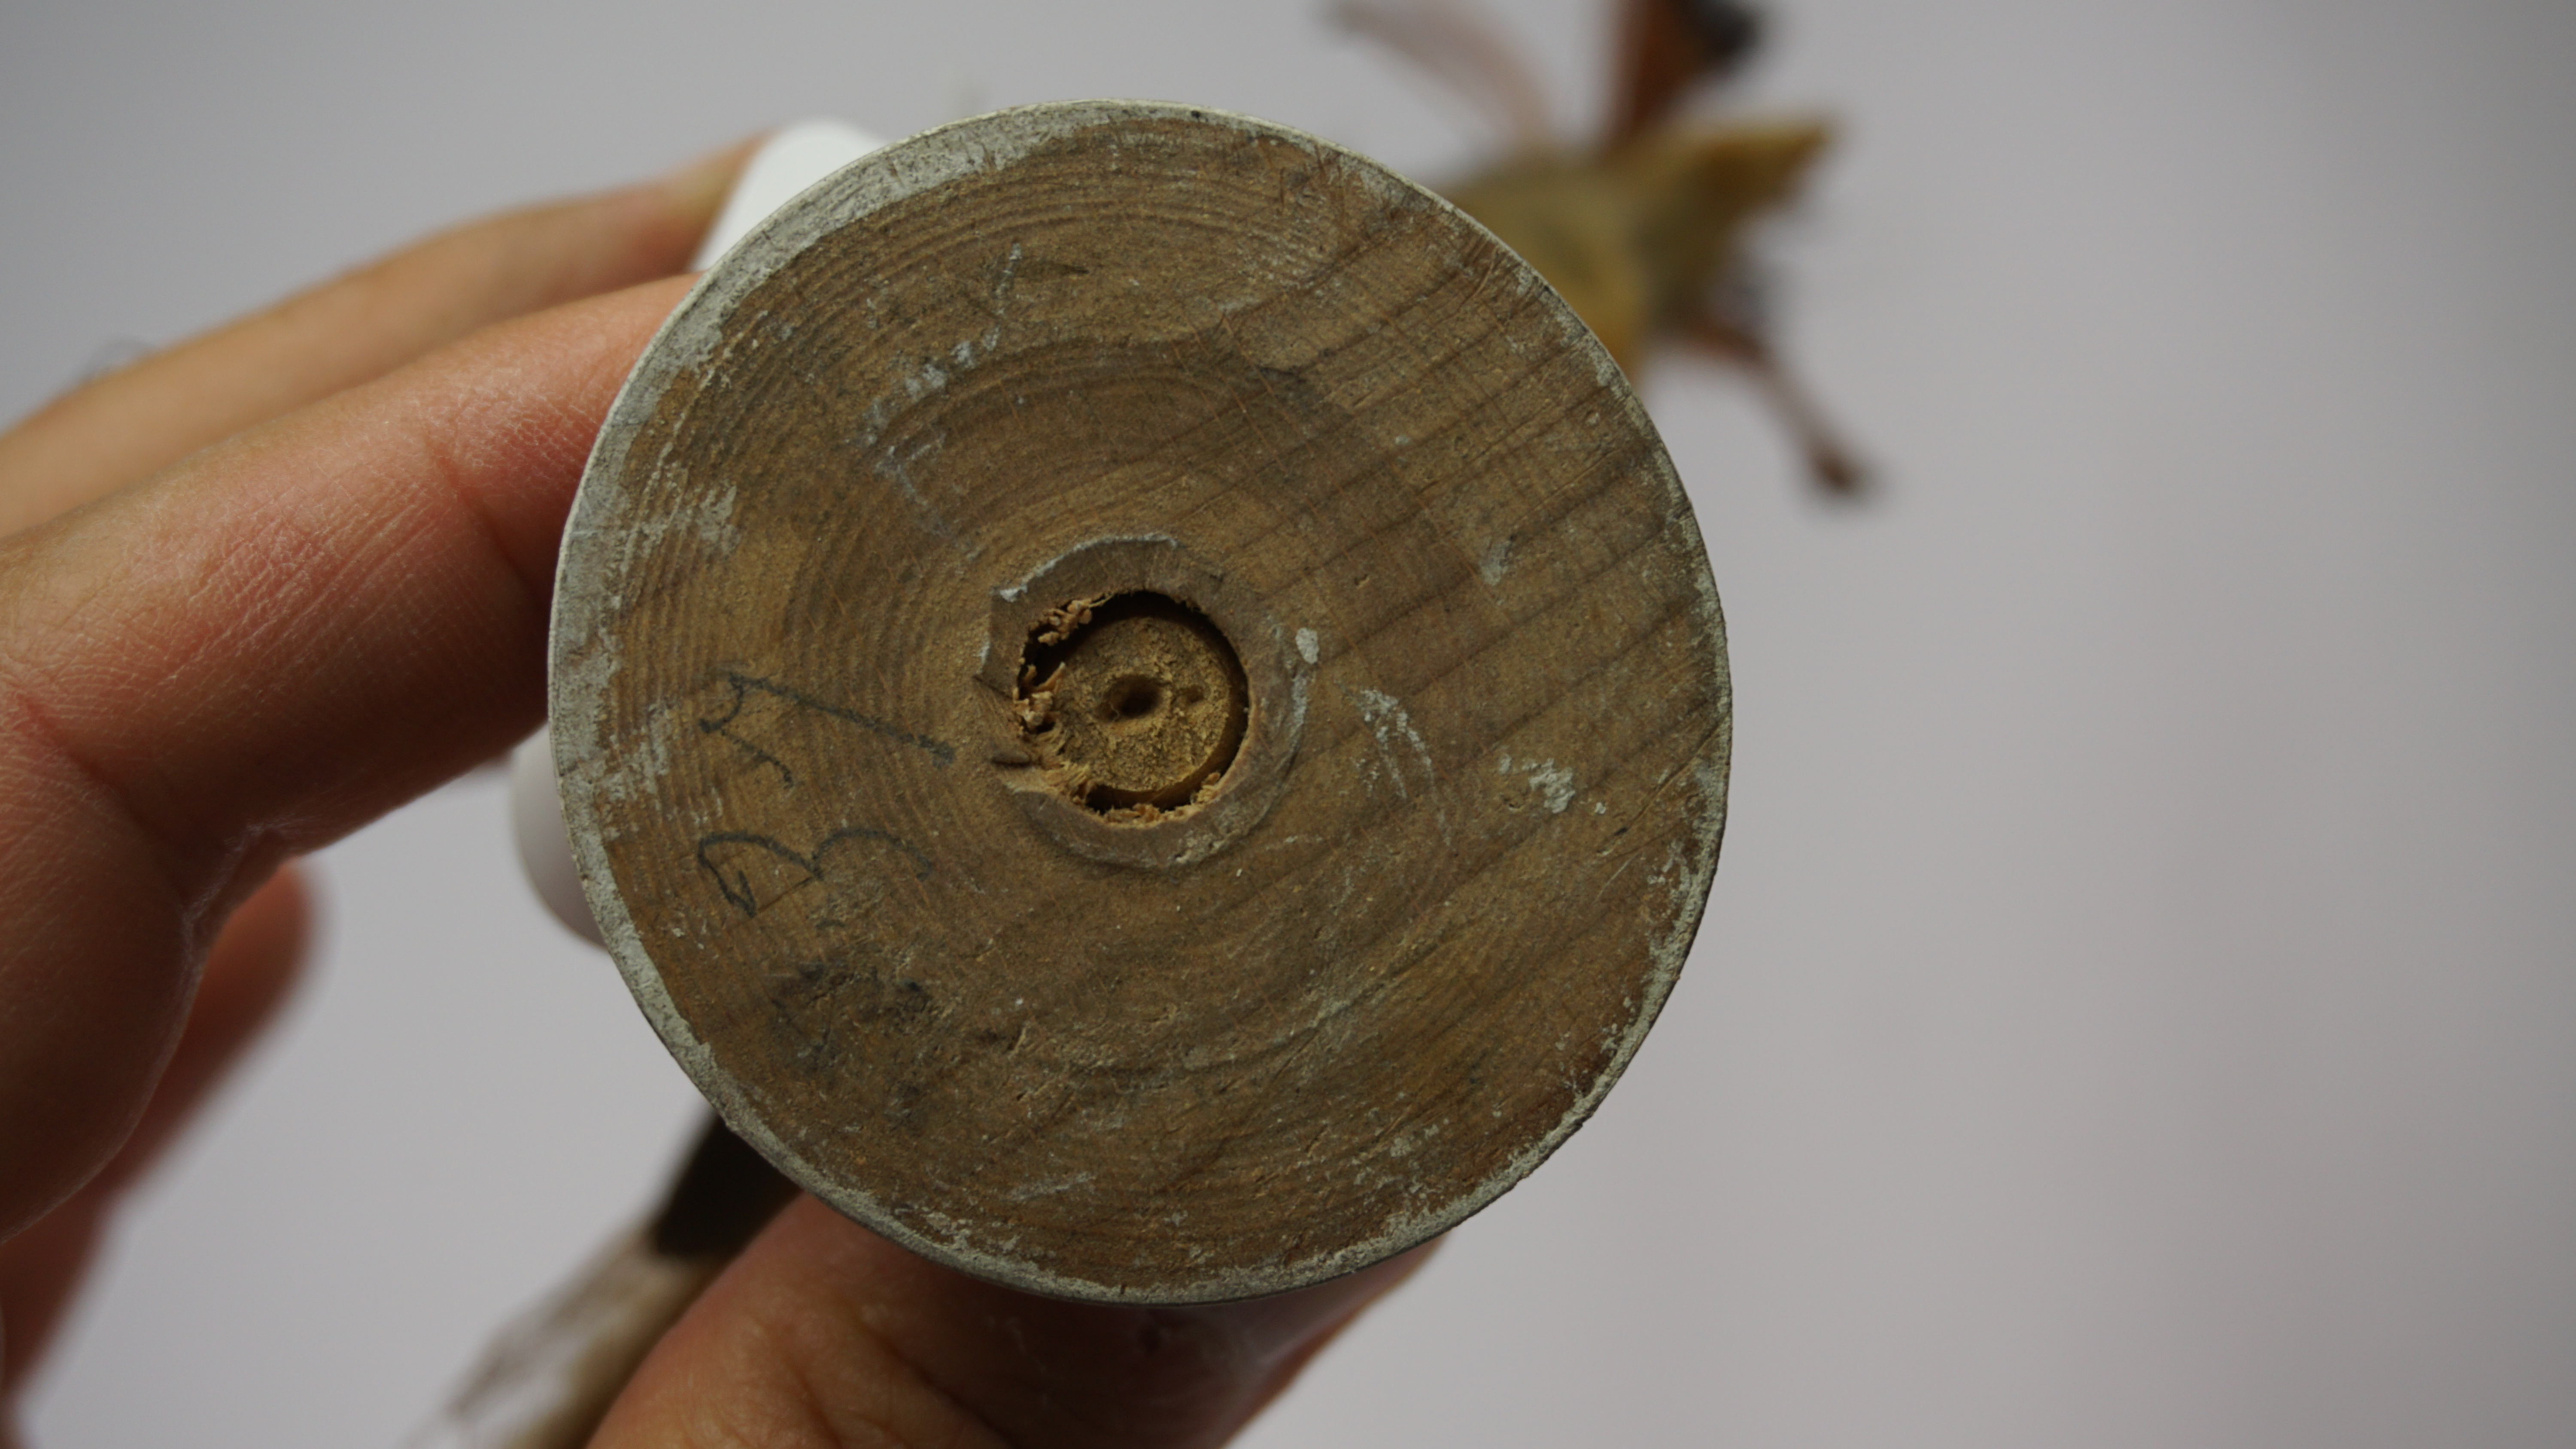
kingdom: Animalia
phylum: Chordata
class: Aves
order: Passeriformes
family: Tyrannidae
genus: Onychorhynchus
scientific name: Onychorhynchus coronatus
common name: Royal flycatcher
